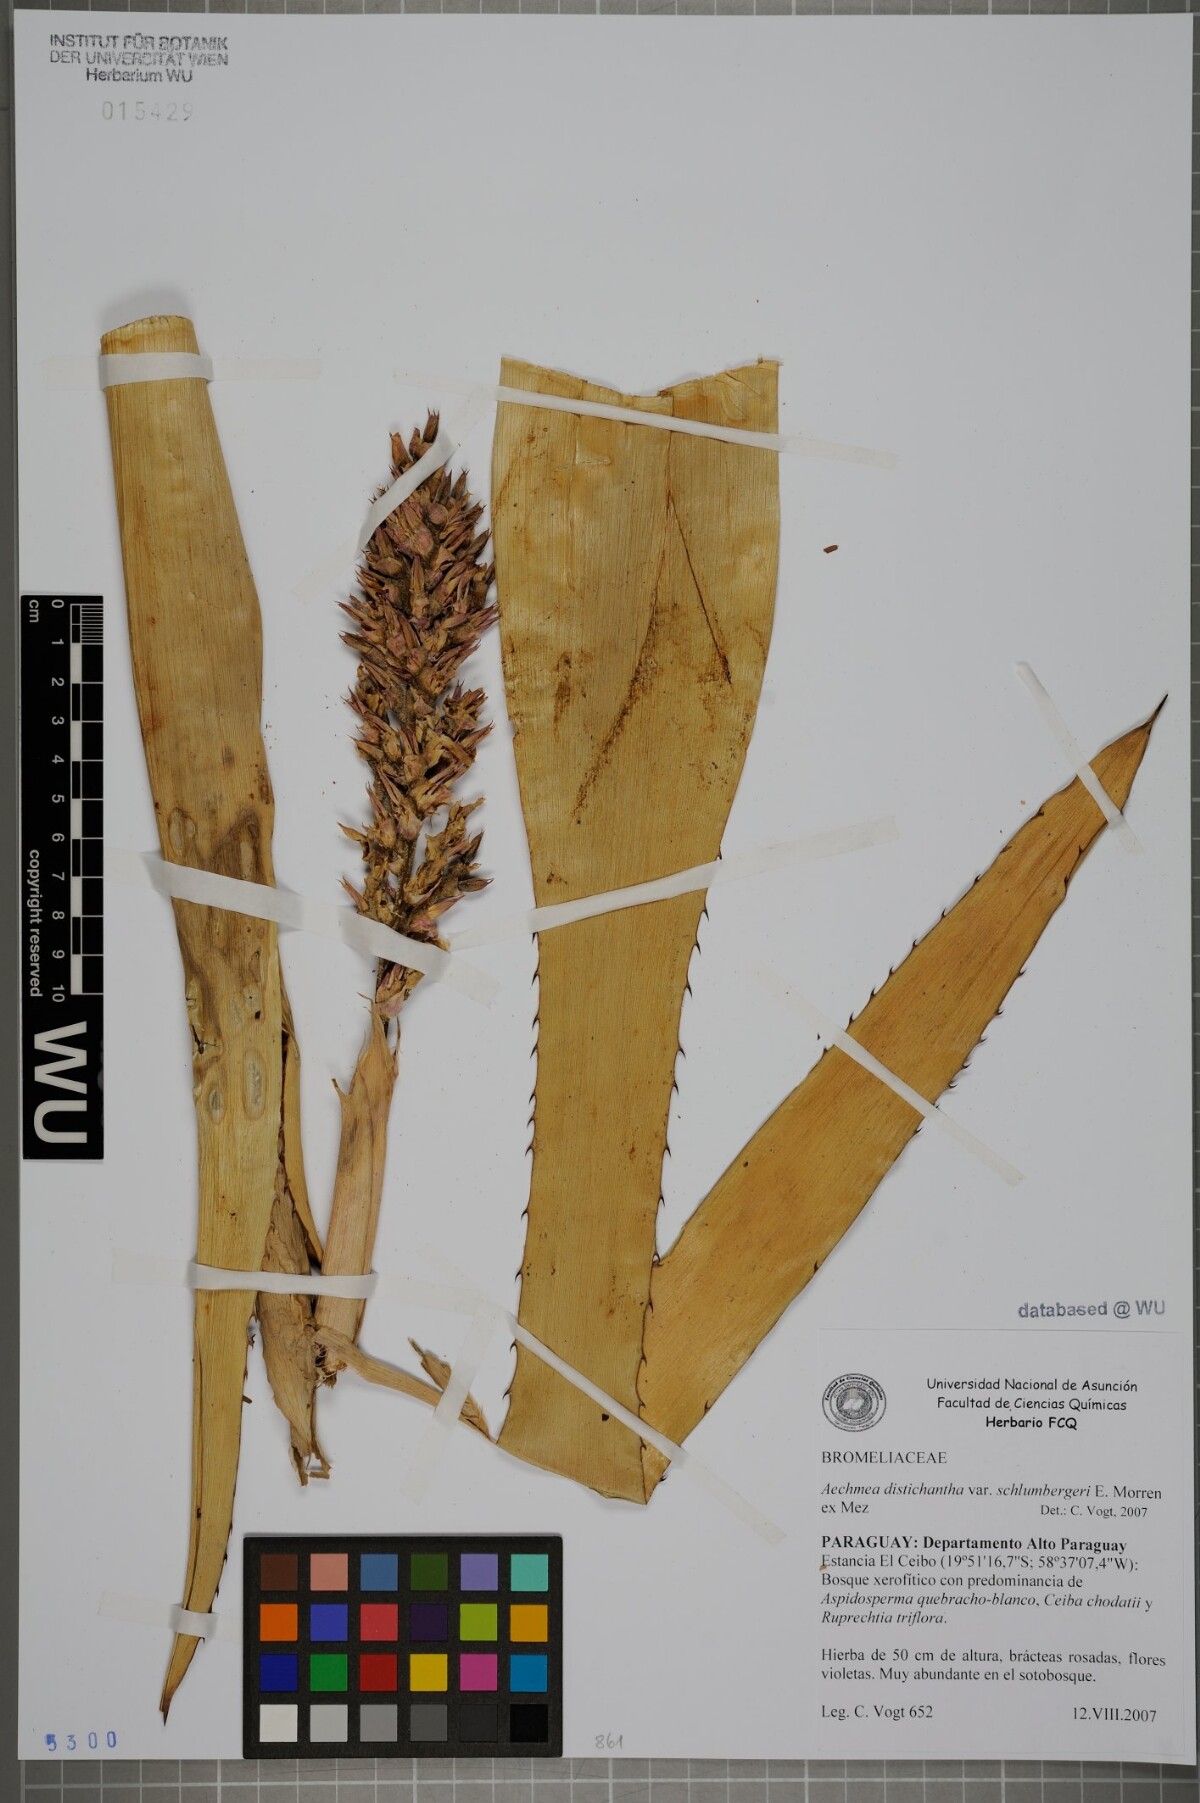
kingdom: Plantae
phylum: Tracheophyta
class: Liliopsida
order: Poales
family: Bromeliaceae
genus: Aechmea
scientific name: Aechmea distichantha
